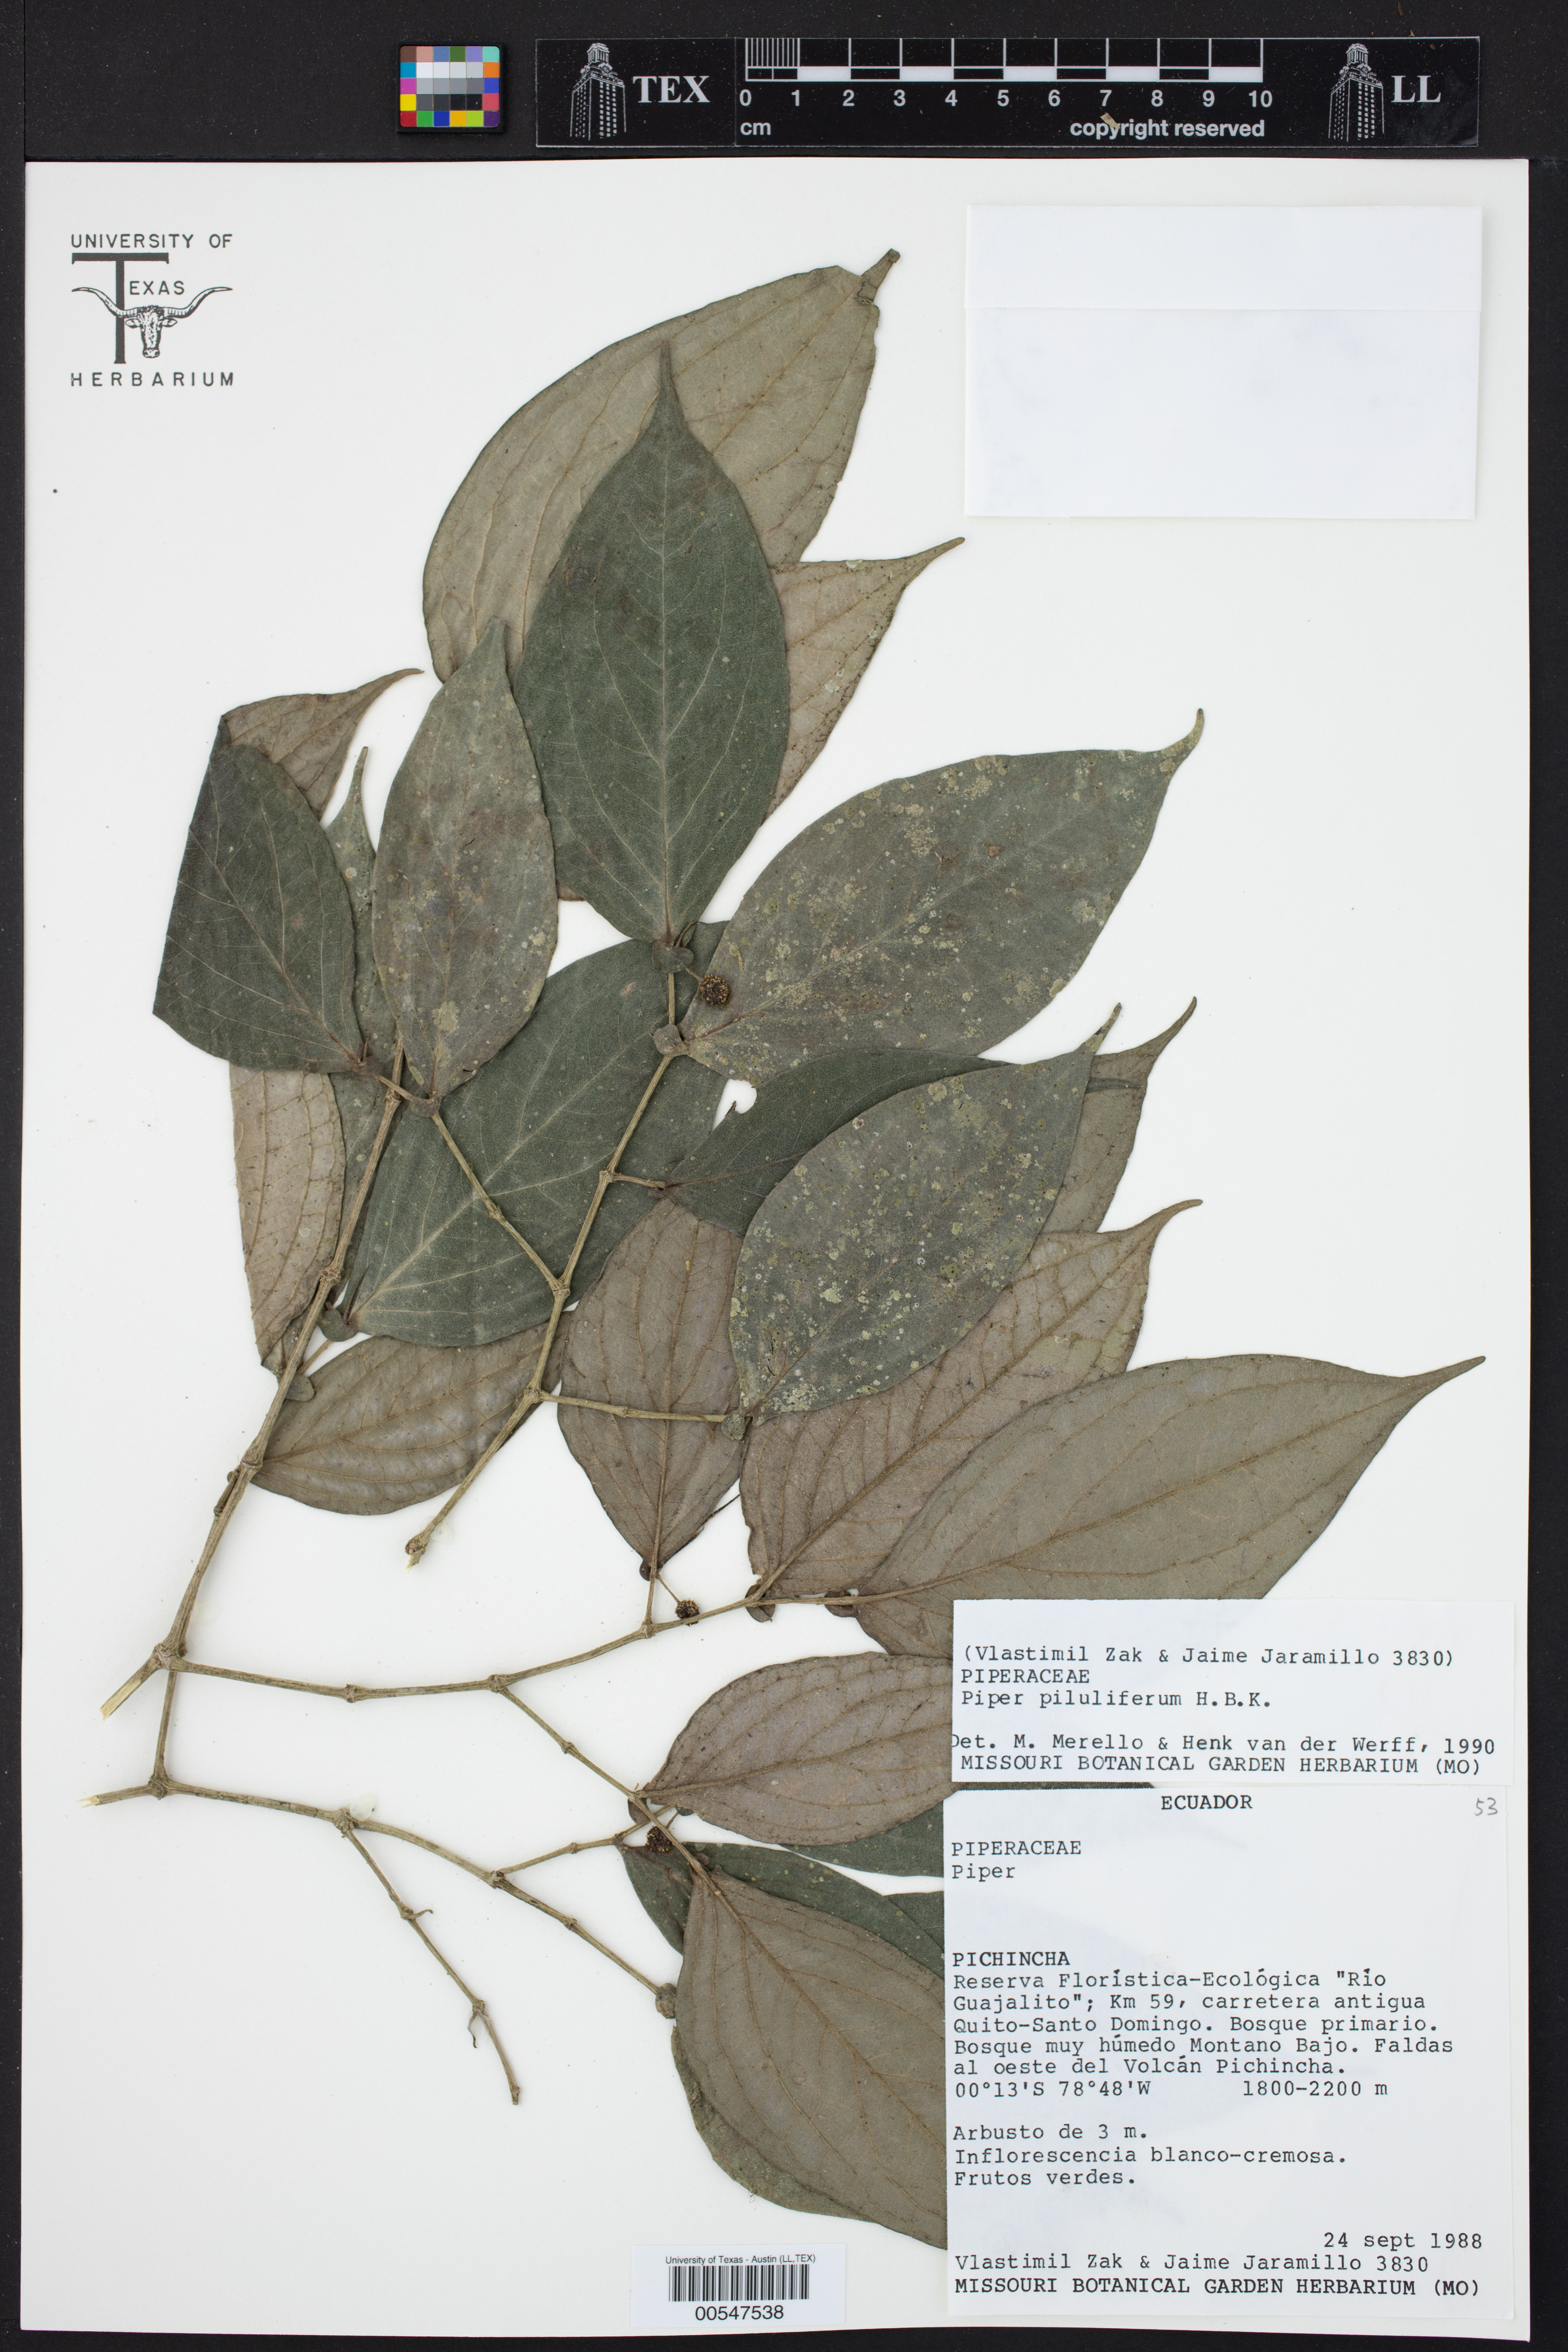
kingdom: Plantae
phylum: Tracheophyta
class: Magnoliopsida
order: Piperales
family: Piperaceae
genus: Piper
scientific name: Piper piluliferum
